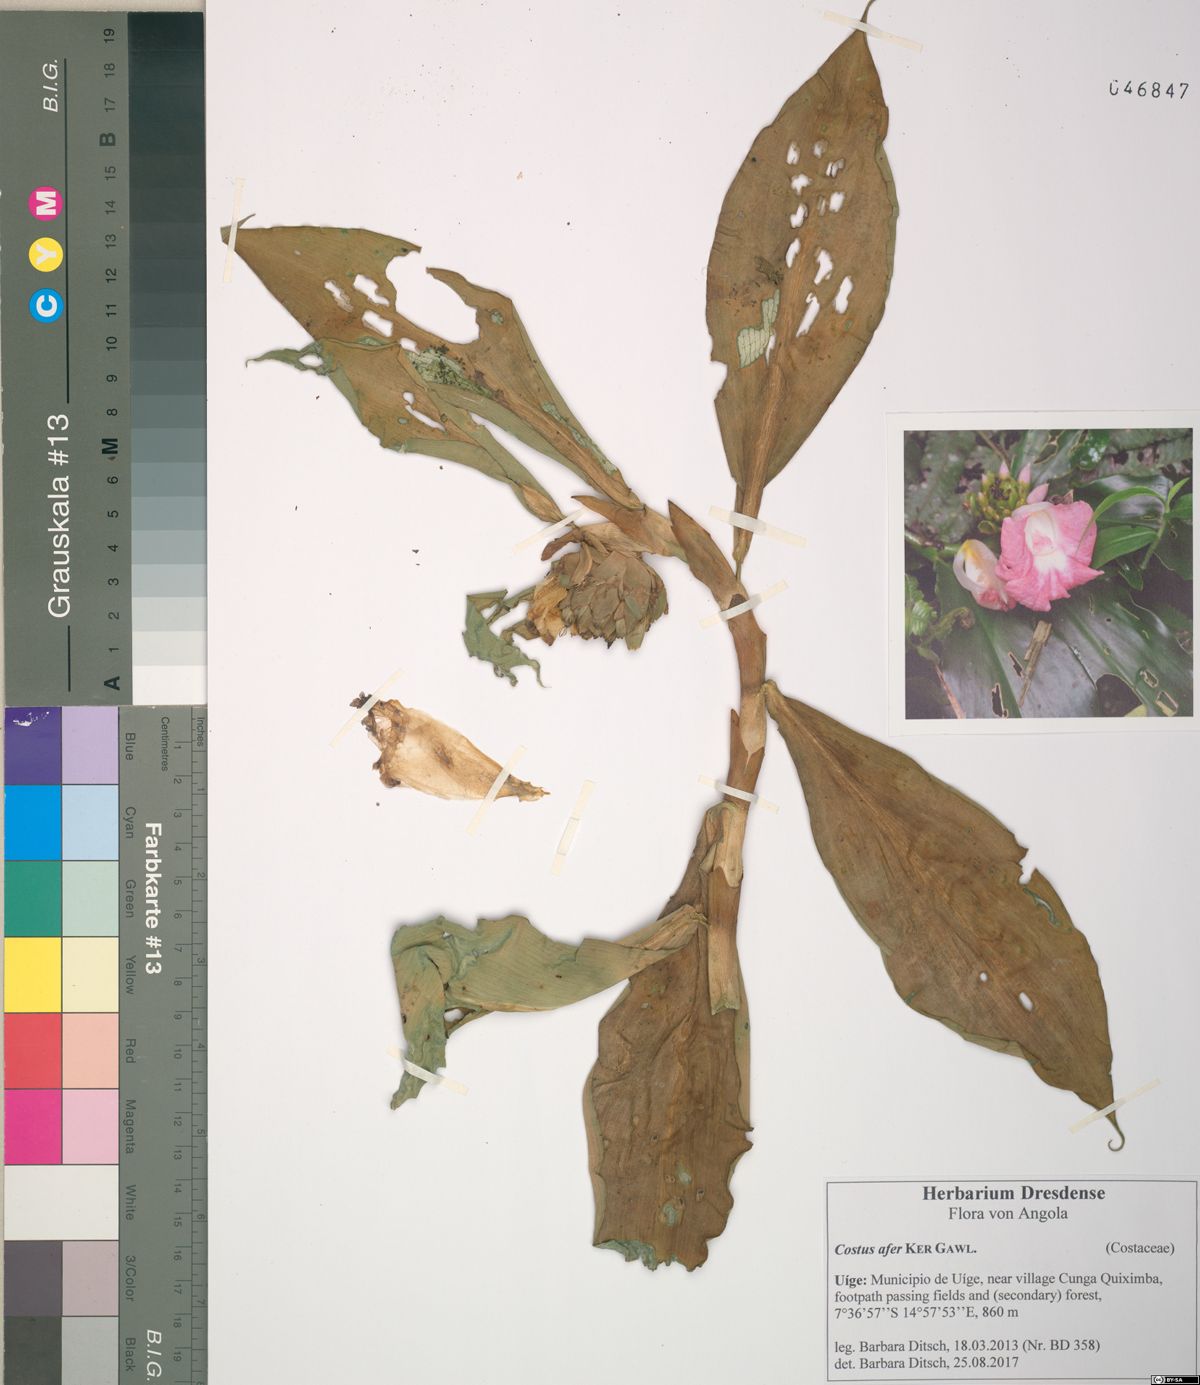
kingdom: Plantae
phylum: Tracheophyta
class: Liliopsida
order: Zingiberales
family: Costaceae
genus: Costus
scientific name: Costus afer
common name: Spiral-ginger
